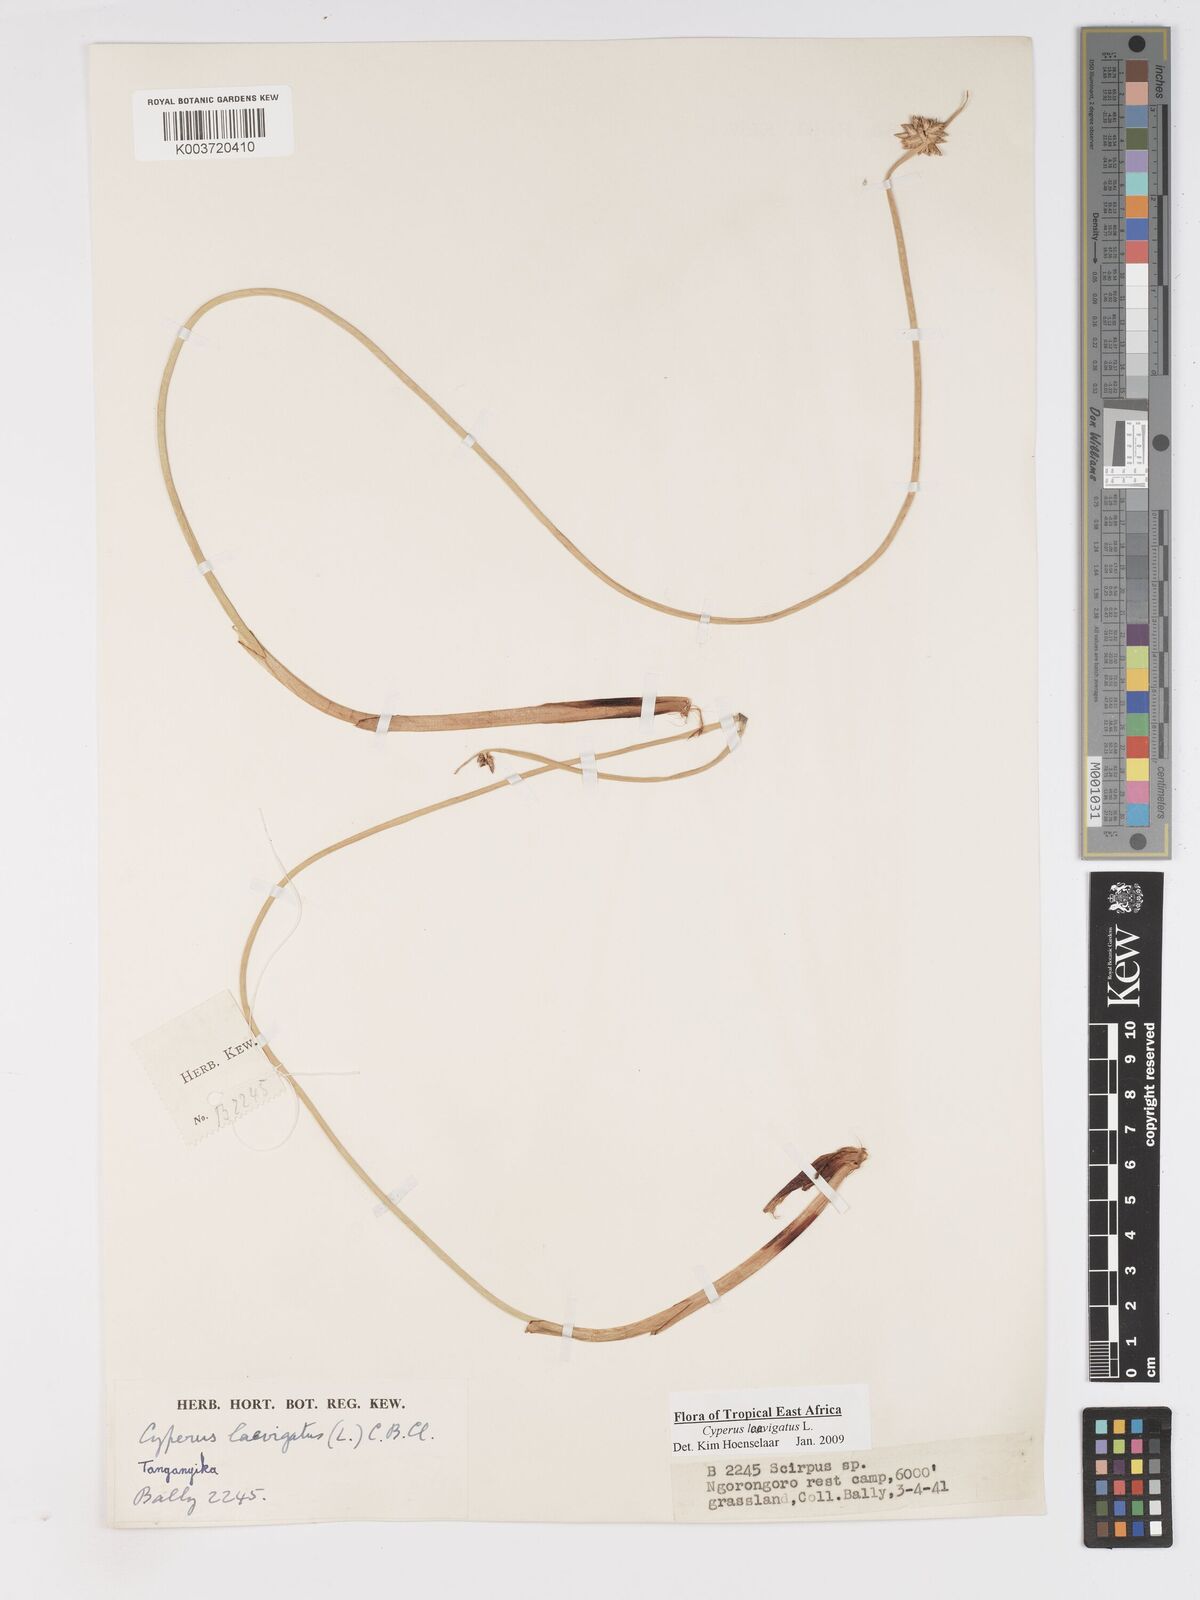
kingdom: Plantae
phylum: Tracheophyta
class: Liliopsida
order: Poales
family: Cyperaceae
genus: Cyperus
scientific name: Cyperus laevigatus
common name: Smooth flat sedge
